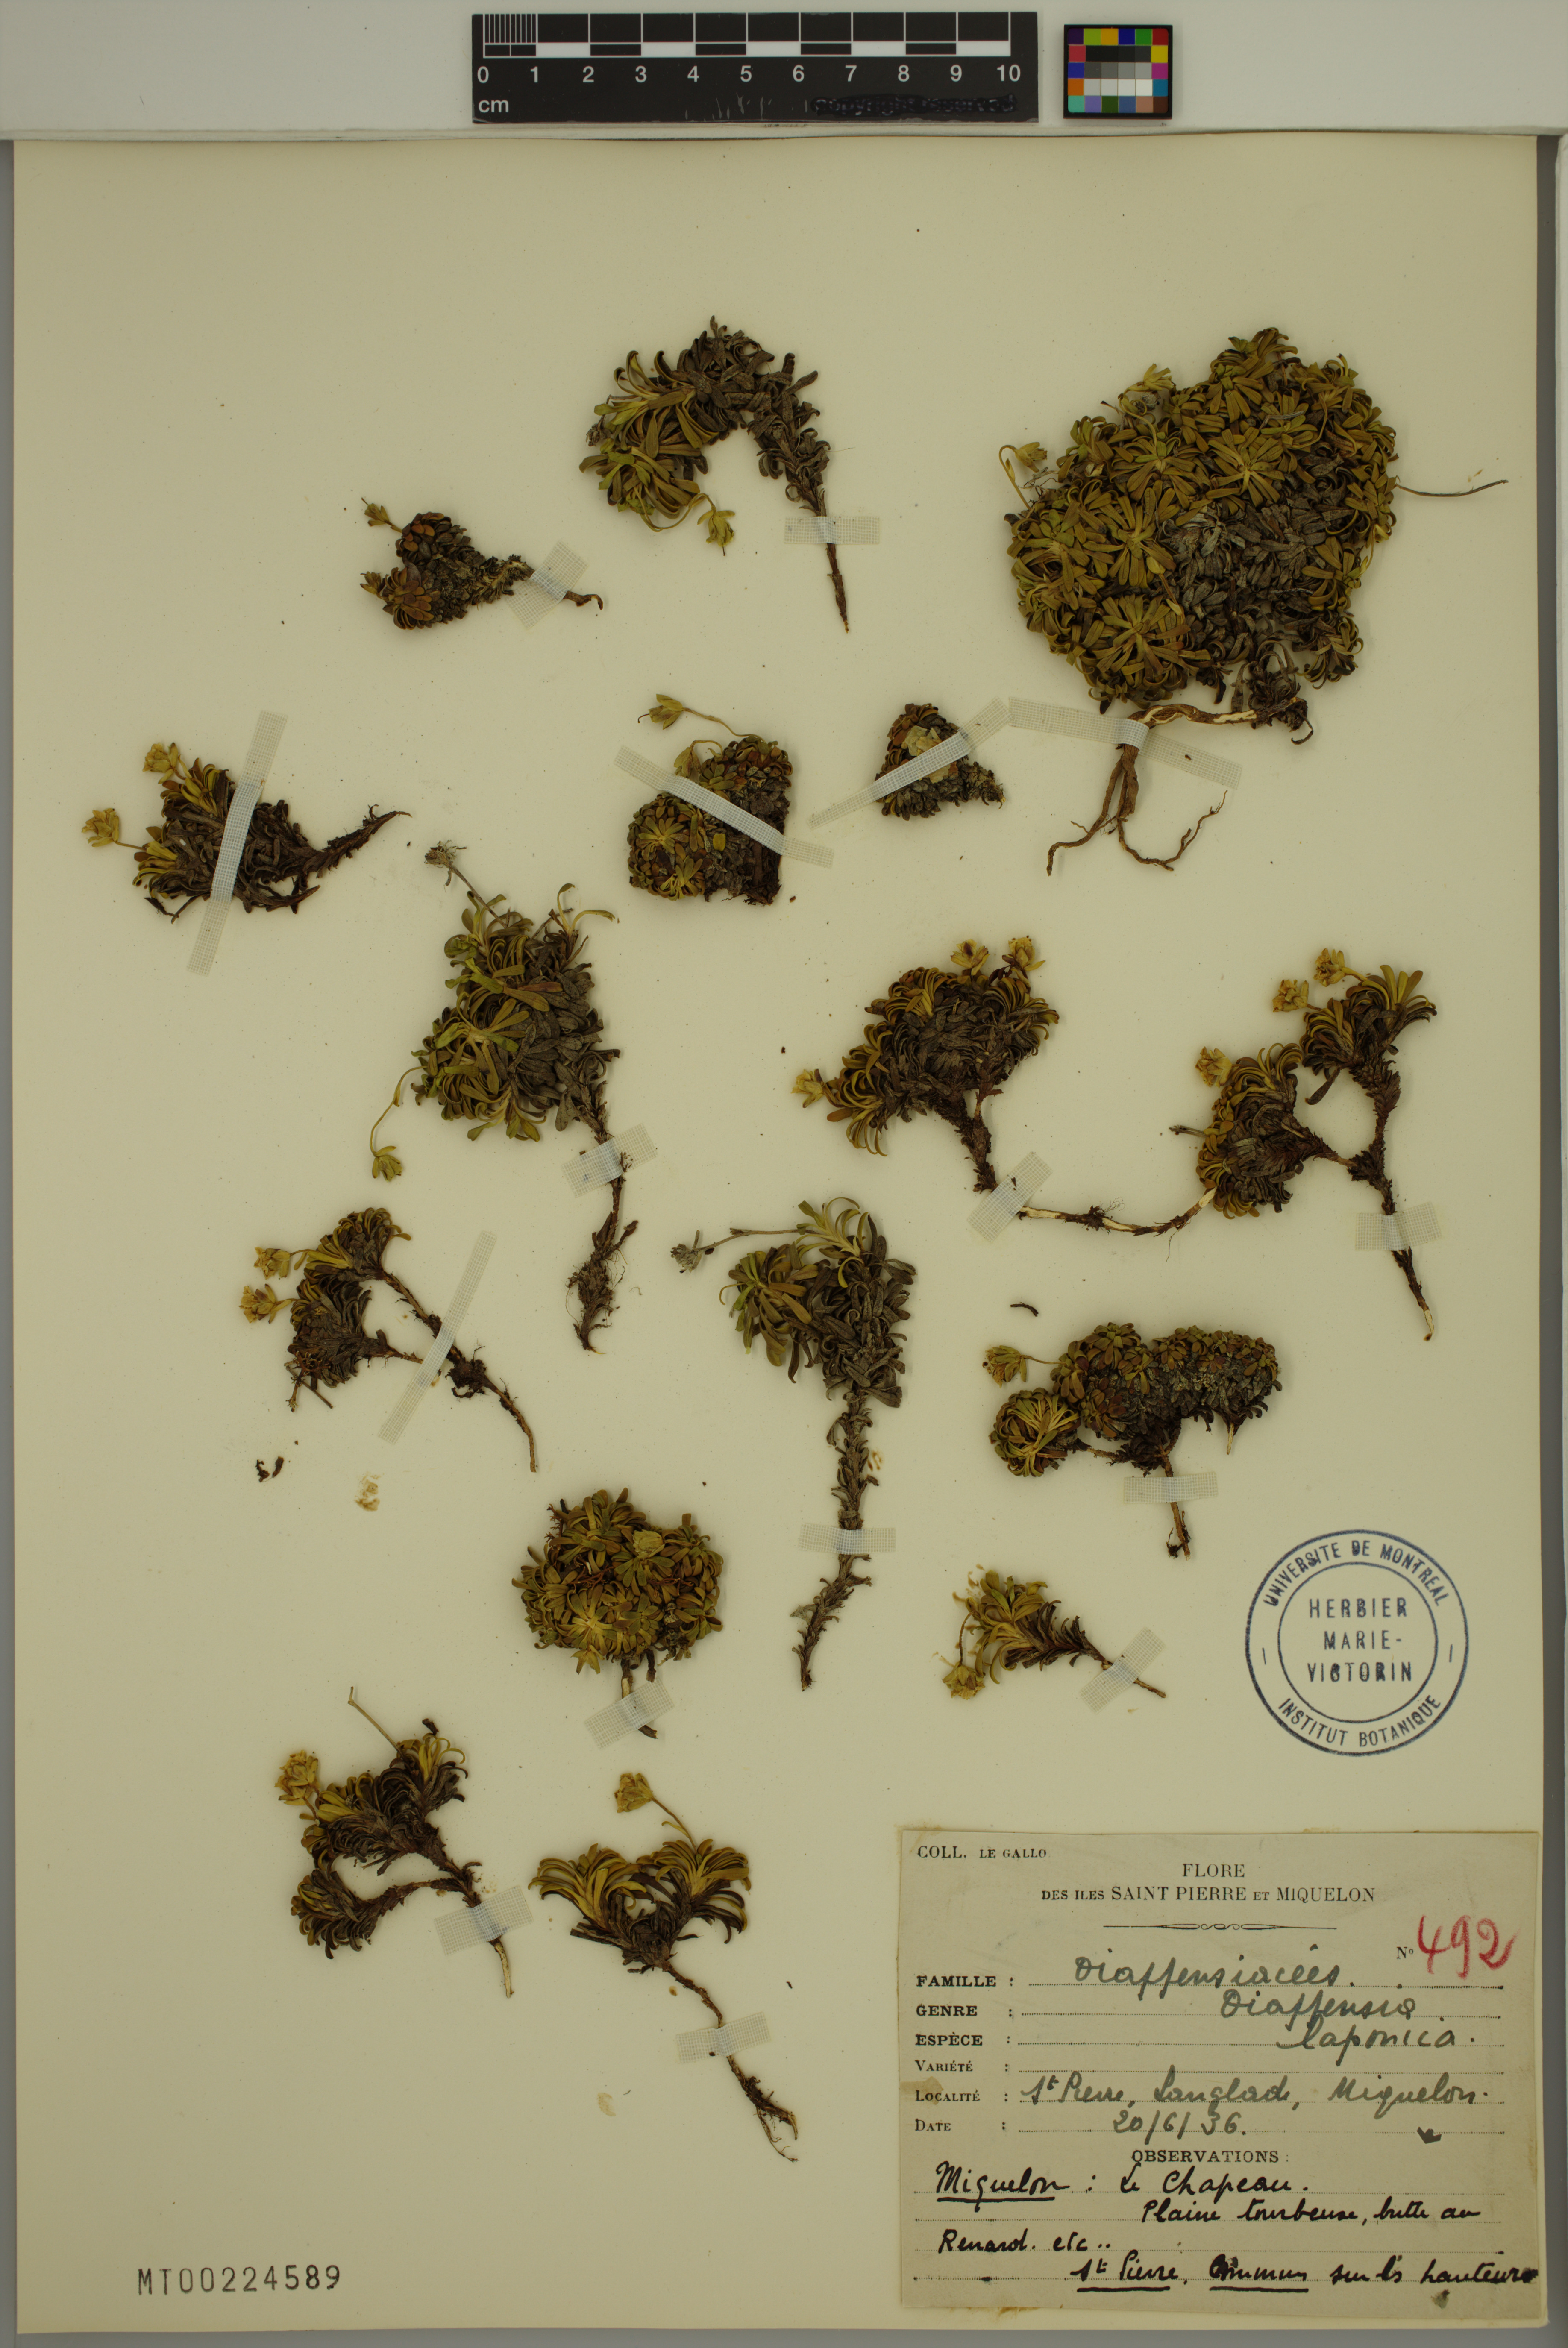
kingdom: Plantae
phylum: Tracheophyta
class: Magnoliopsida
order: Ericales
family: Diapensiaceae
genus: Diapensia
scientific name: Diapensia lapponica
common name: Diapensia
